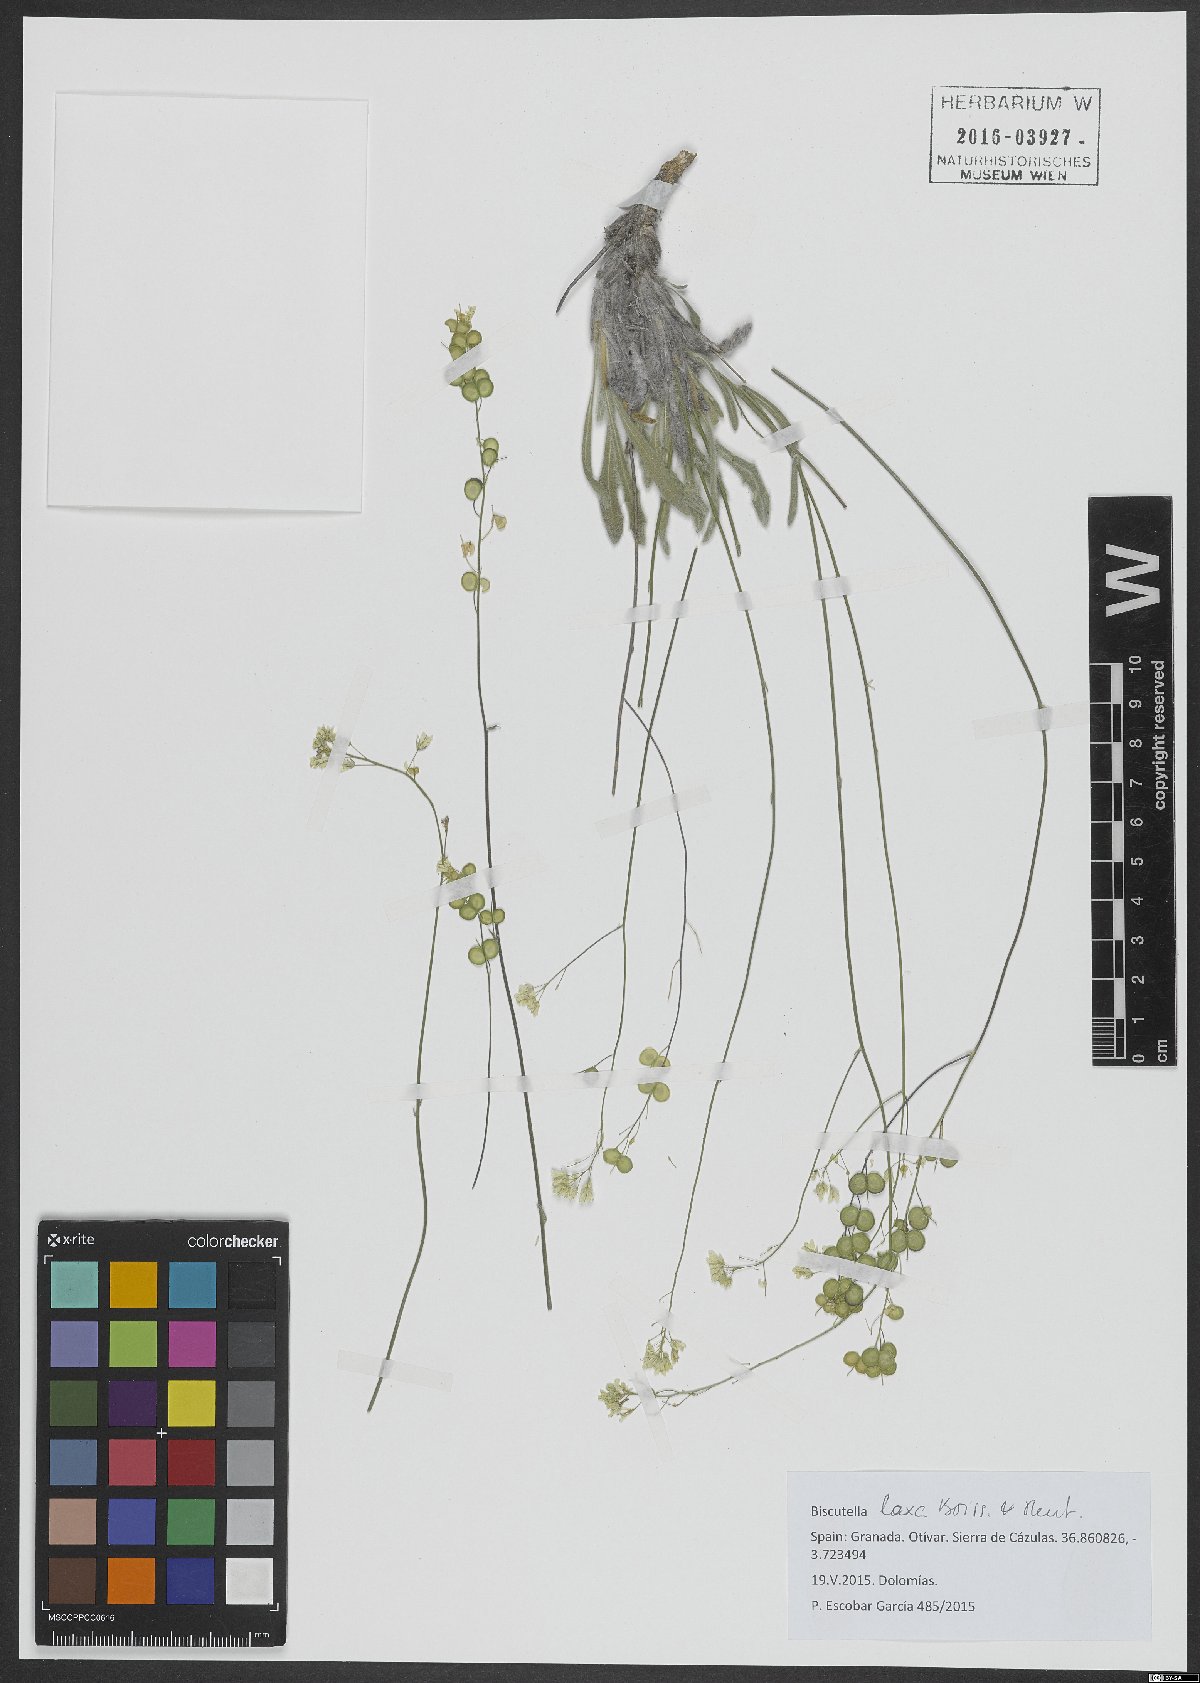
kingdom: Plantae
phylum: Tracheophyta
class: Magnoliopsida
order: Brassicales
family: Brassicaceae
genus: Biscutella
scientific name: Biscutella sempervirens
